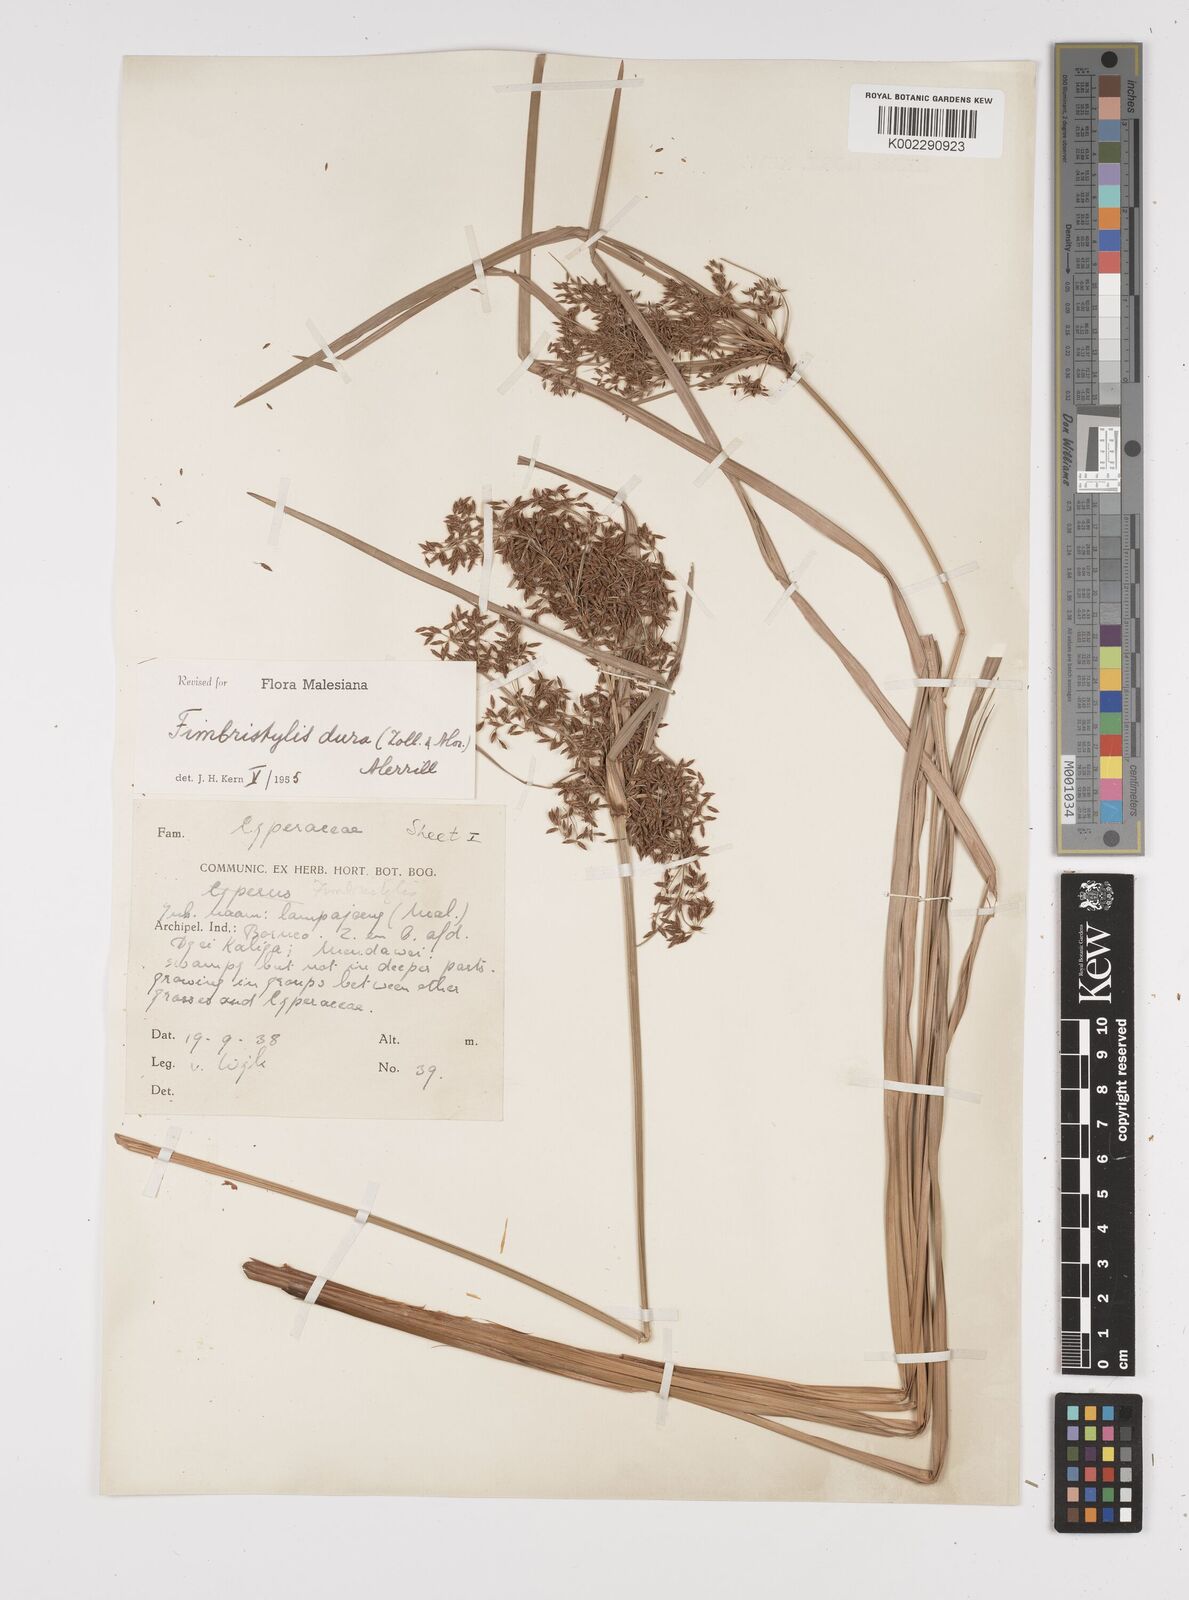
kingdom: Plantae
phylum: Tracheophyta
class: Liliopsida
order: Poales
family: Cyperaceae
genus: Fimbristylis
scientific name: Fimbristylis dura
